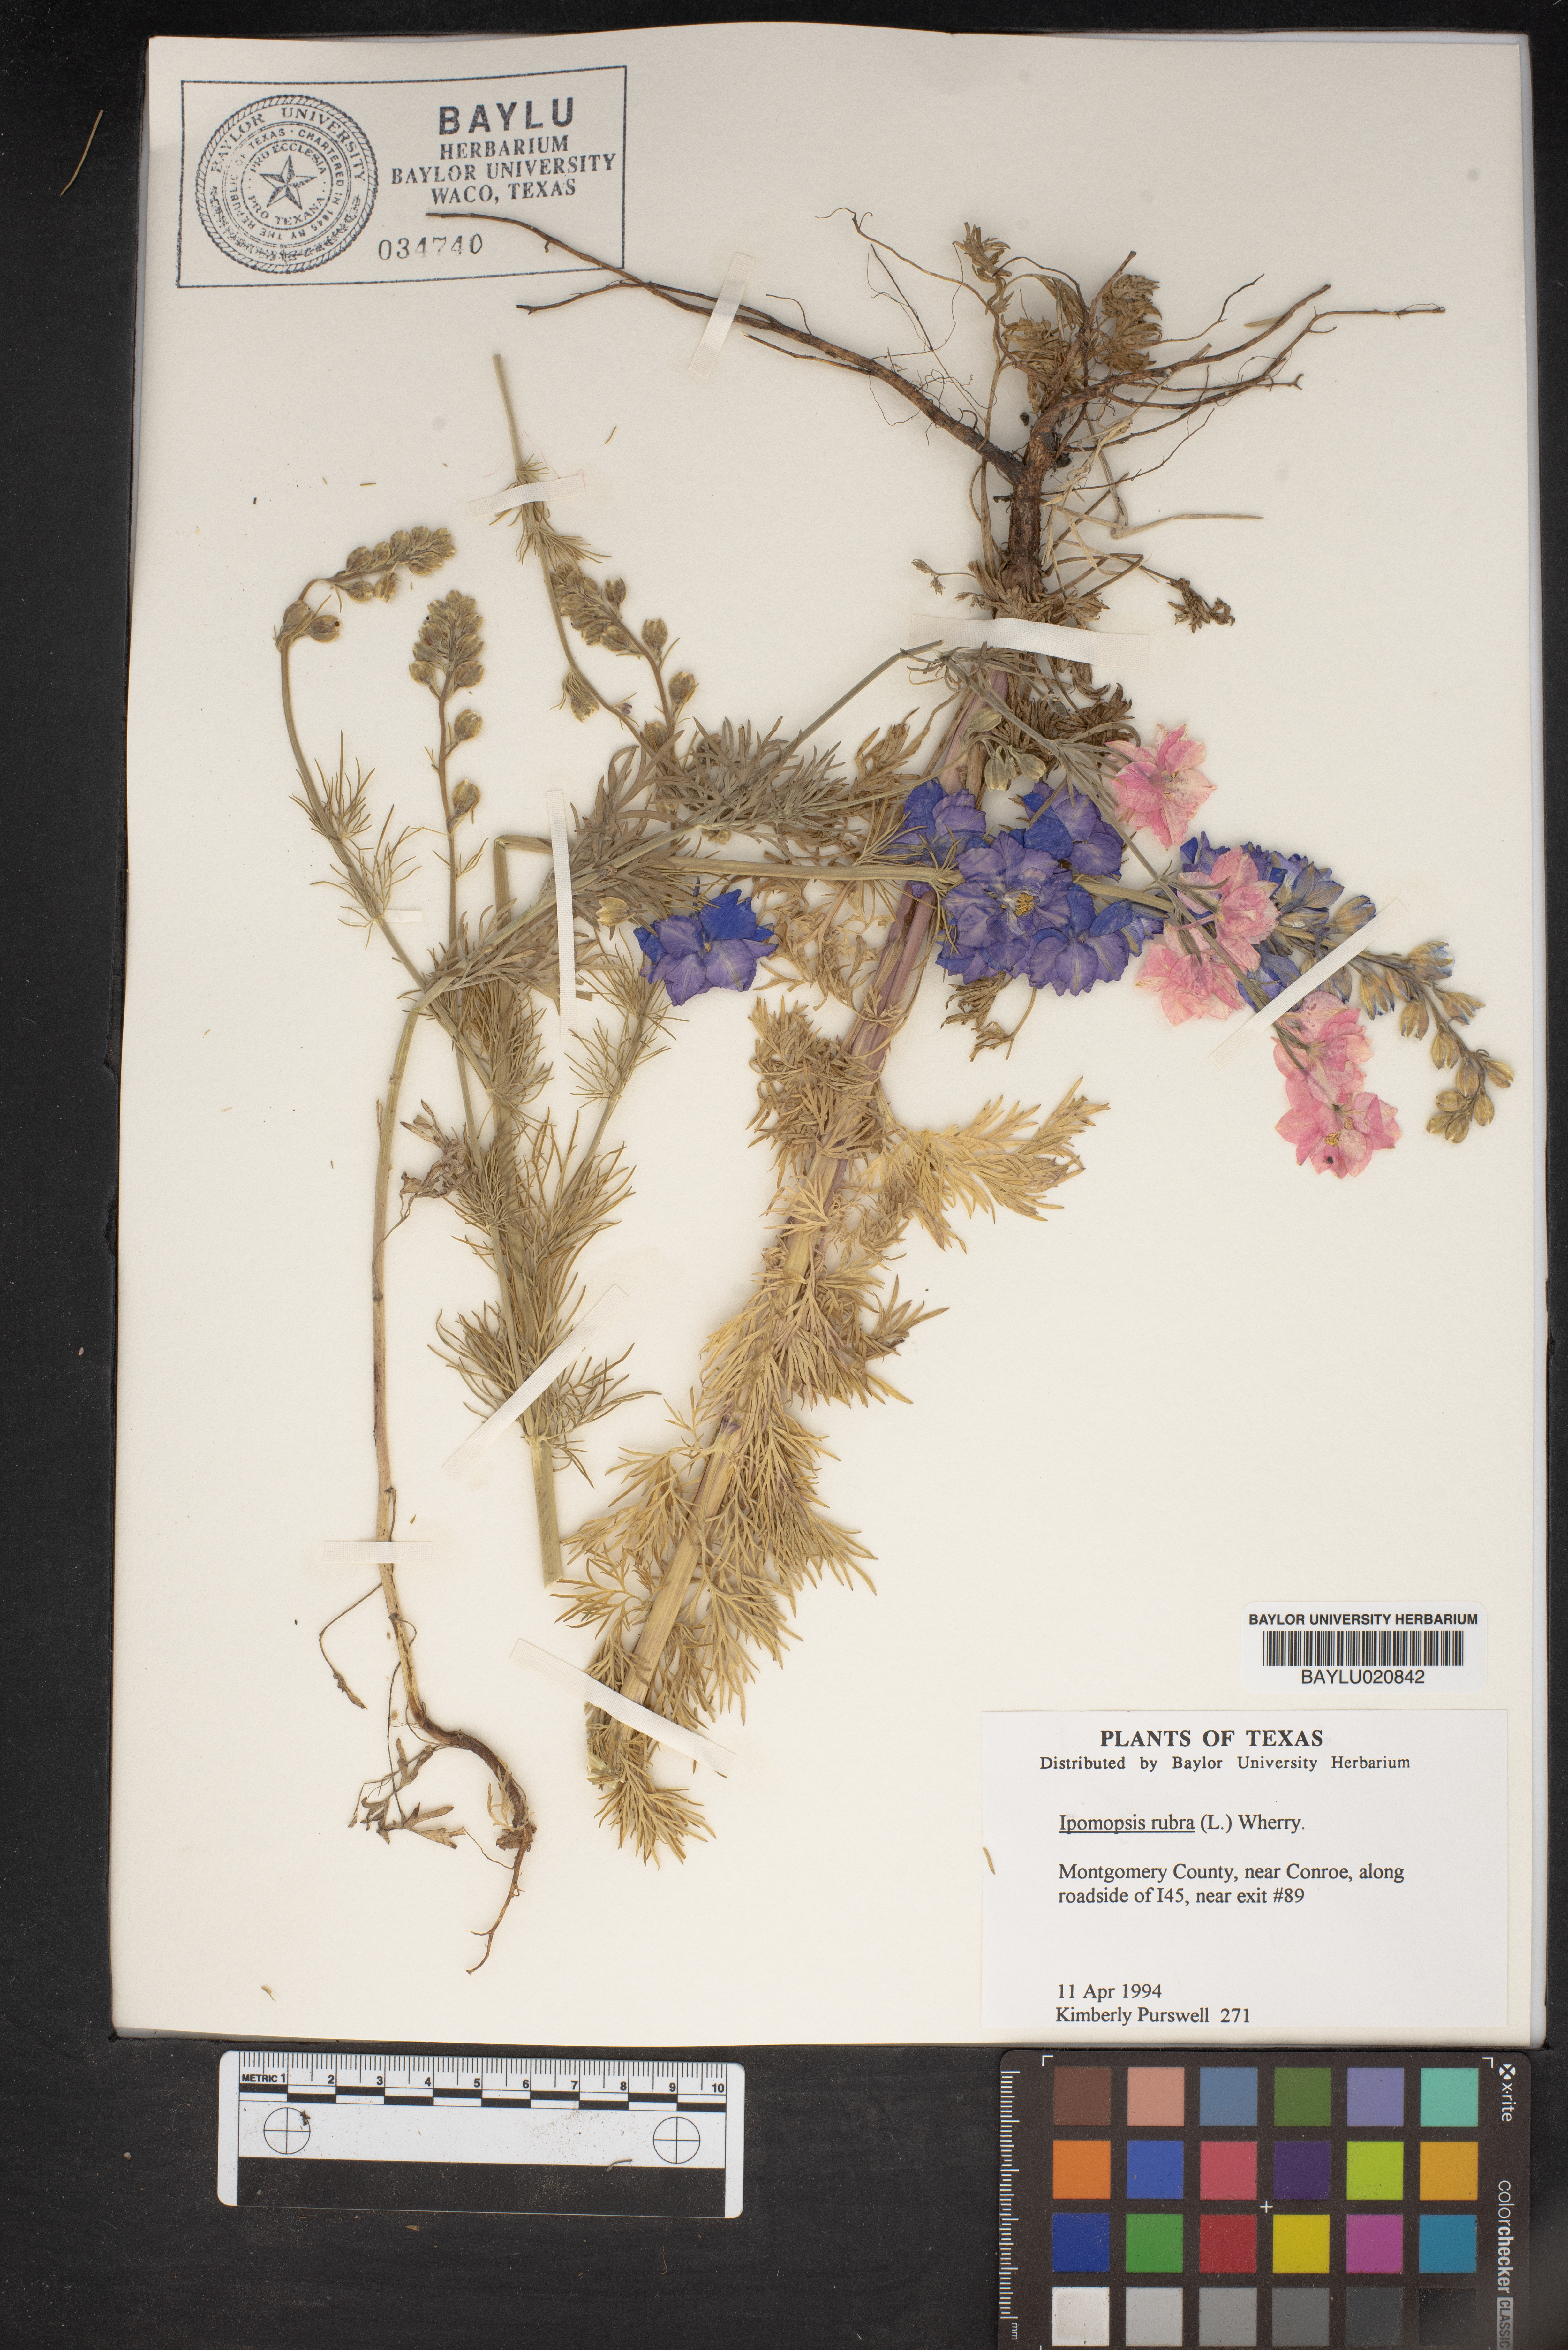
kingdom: Plantae
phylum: Tracheophyta
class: Magnoliopsida
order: Ericales
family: Polemoniaceae
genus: Ipomopsis
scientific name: Ipomopsis rubra
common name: Skyrocket
